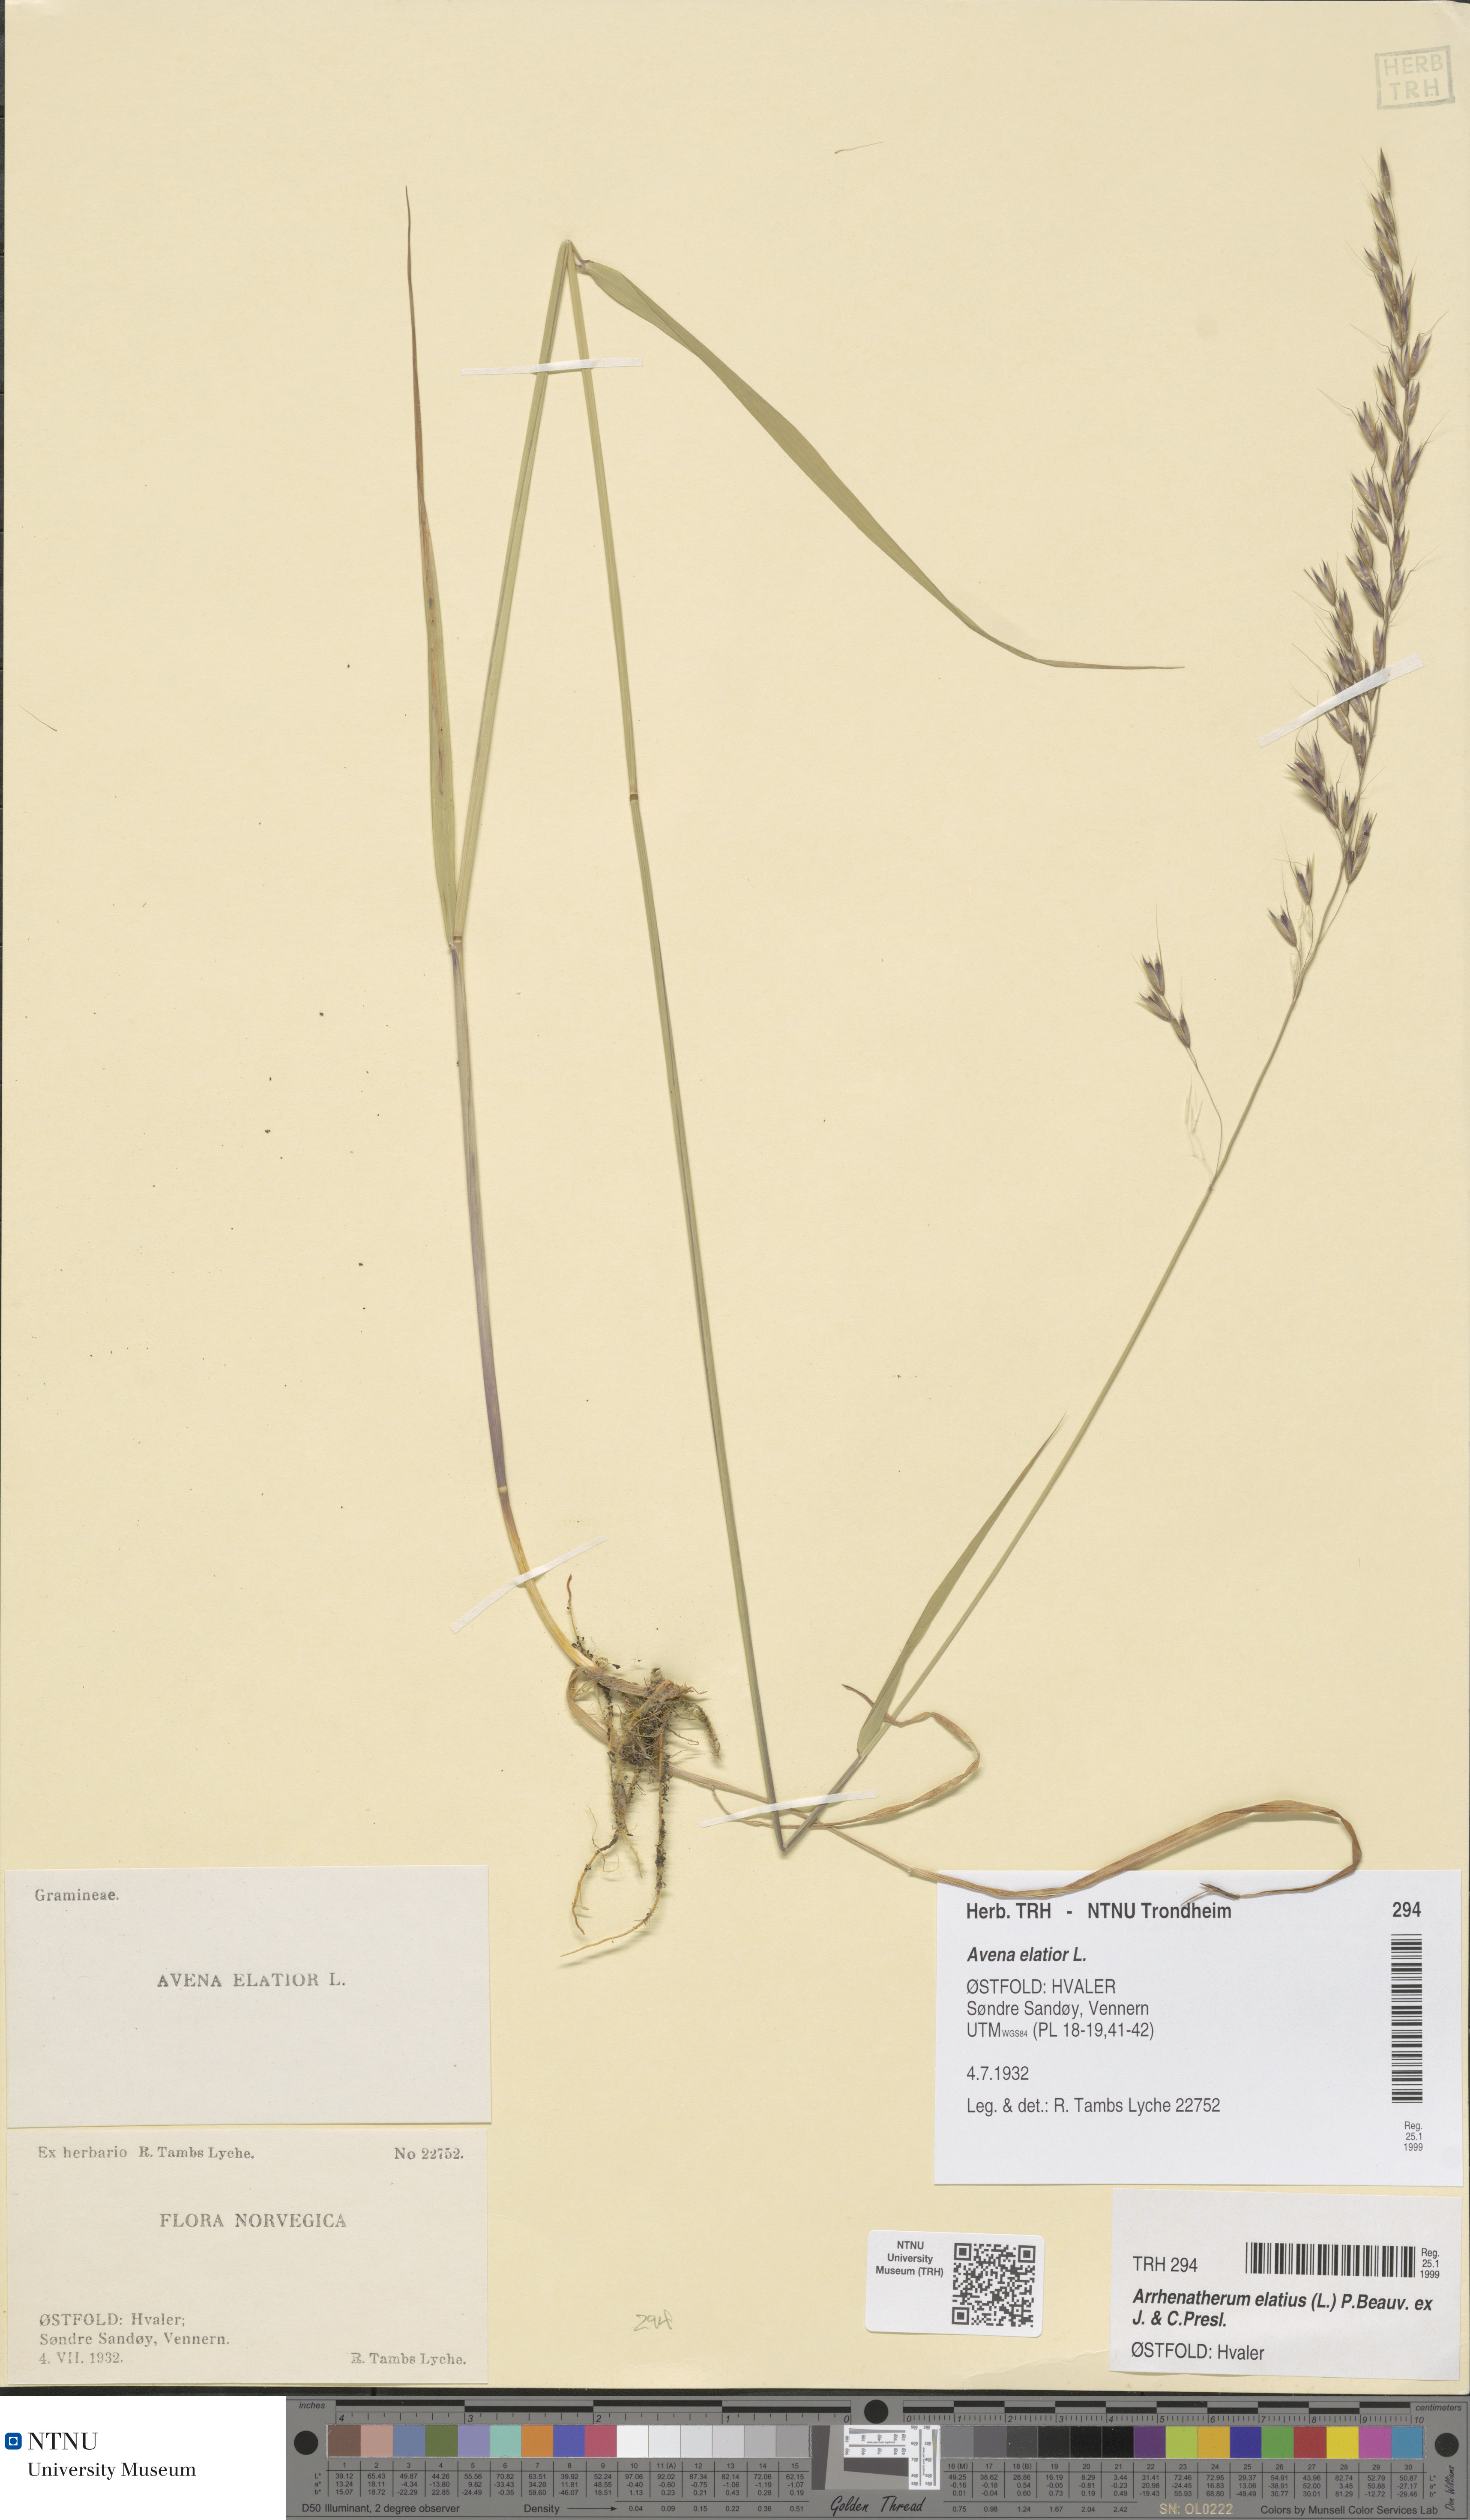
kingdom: Plantae
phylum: Tracheophyta
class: Liliopsida
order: Poales
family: Poaceae
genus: Arrhenatherum
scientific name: Arrhenatherum elatius
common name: Tall oatgrass
